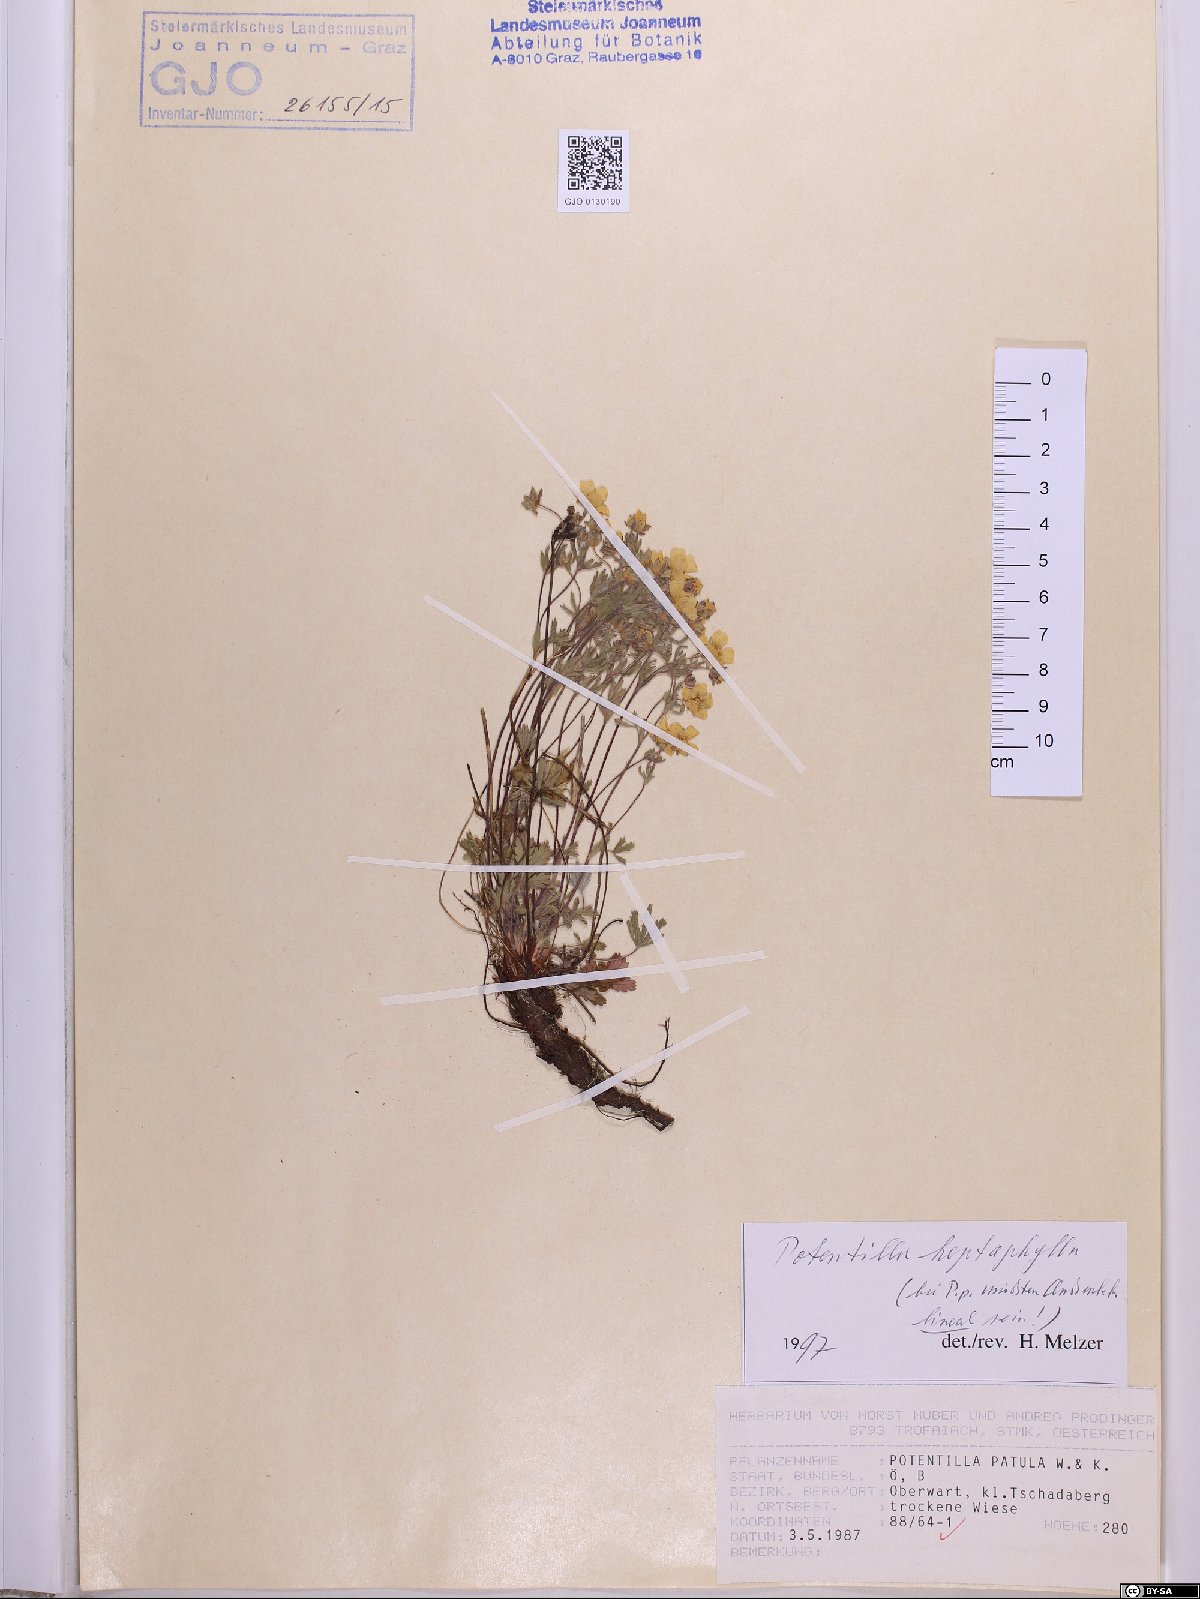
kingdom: Plantae
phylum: Tracheophyta
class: Magnoliopsida
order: Rosales
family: Rosaceae
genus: Potentilla
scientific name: Potentilla heptaphylla
